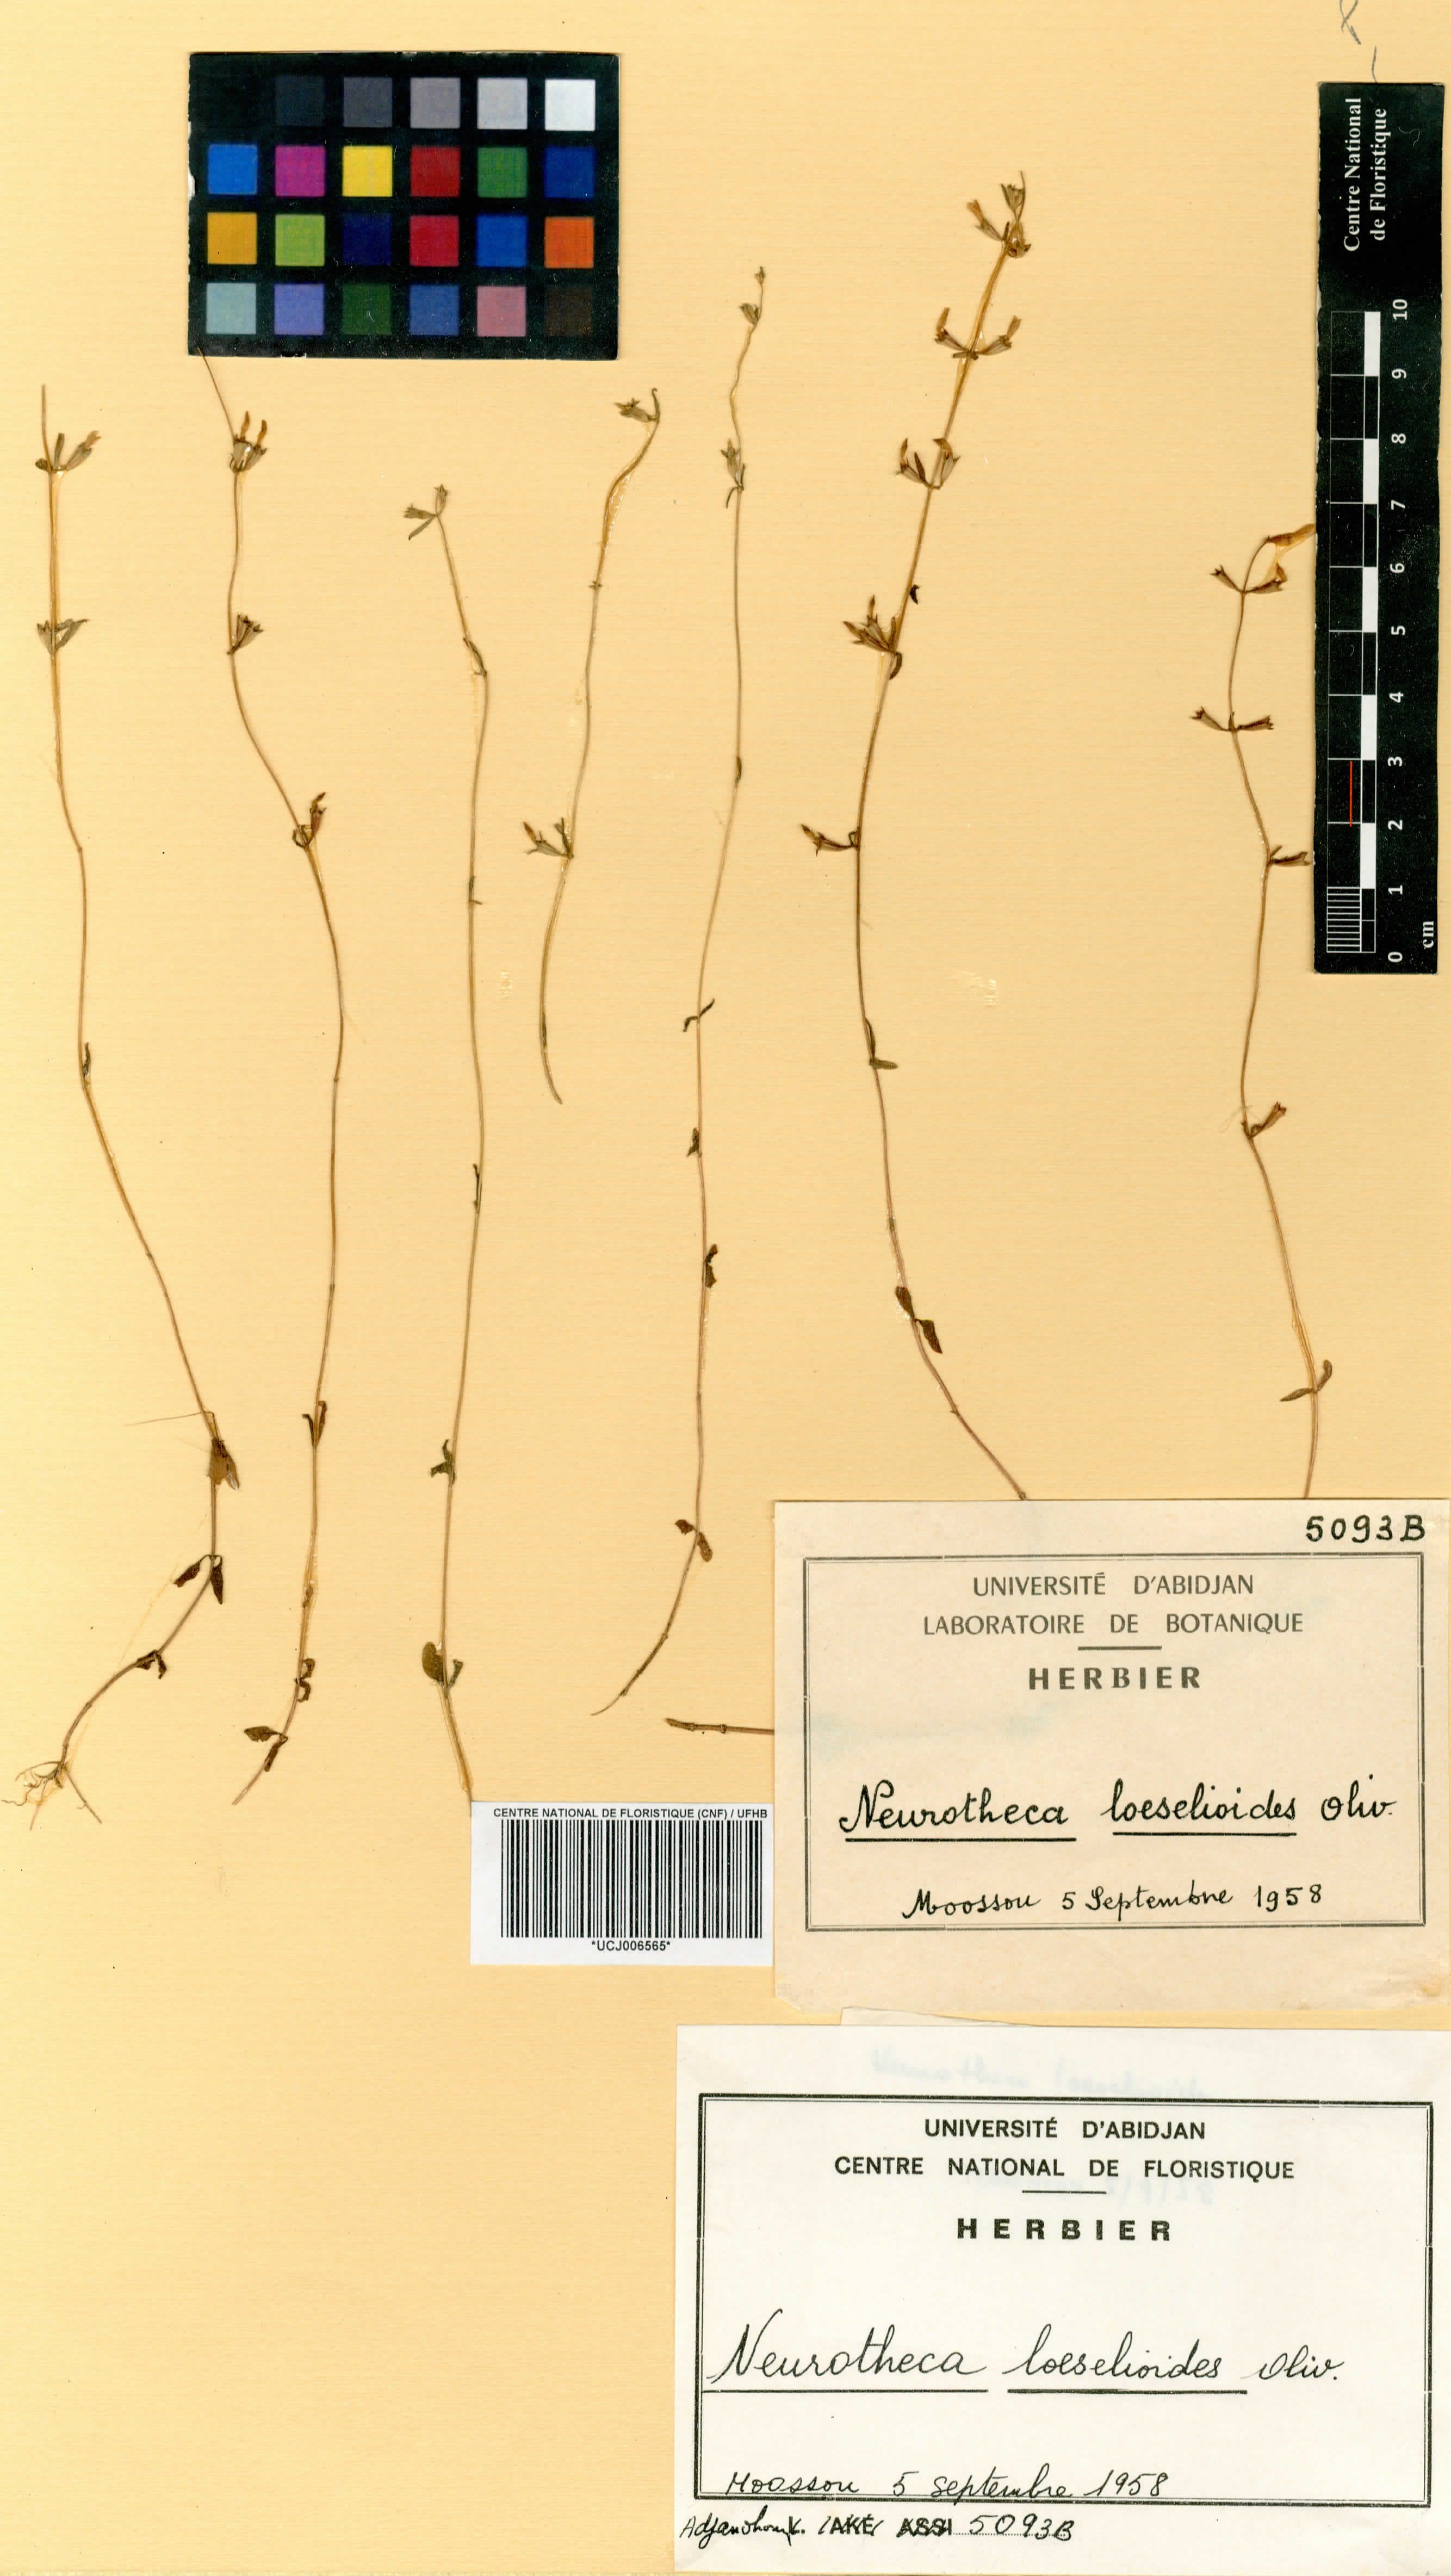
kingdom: Plantae
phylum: Tracheophyta
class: Magnoliopsida
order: Gentianales
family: Gentianaceae
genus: Neurotheca
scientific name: Neurotheca loeselioides
